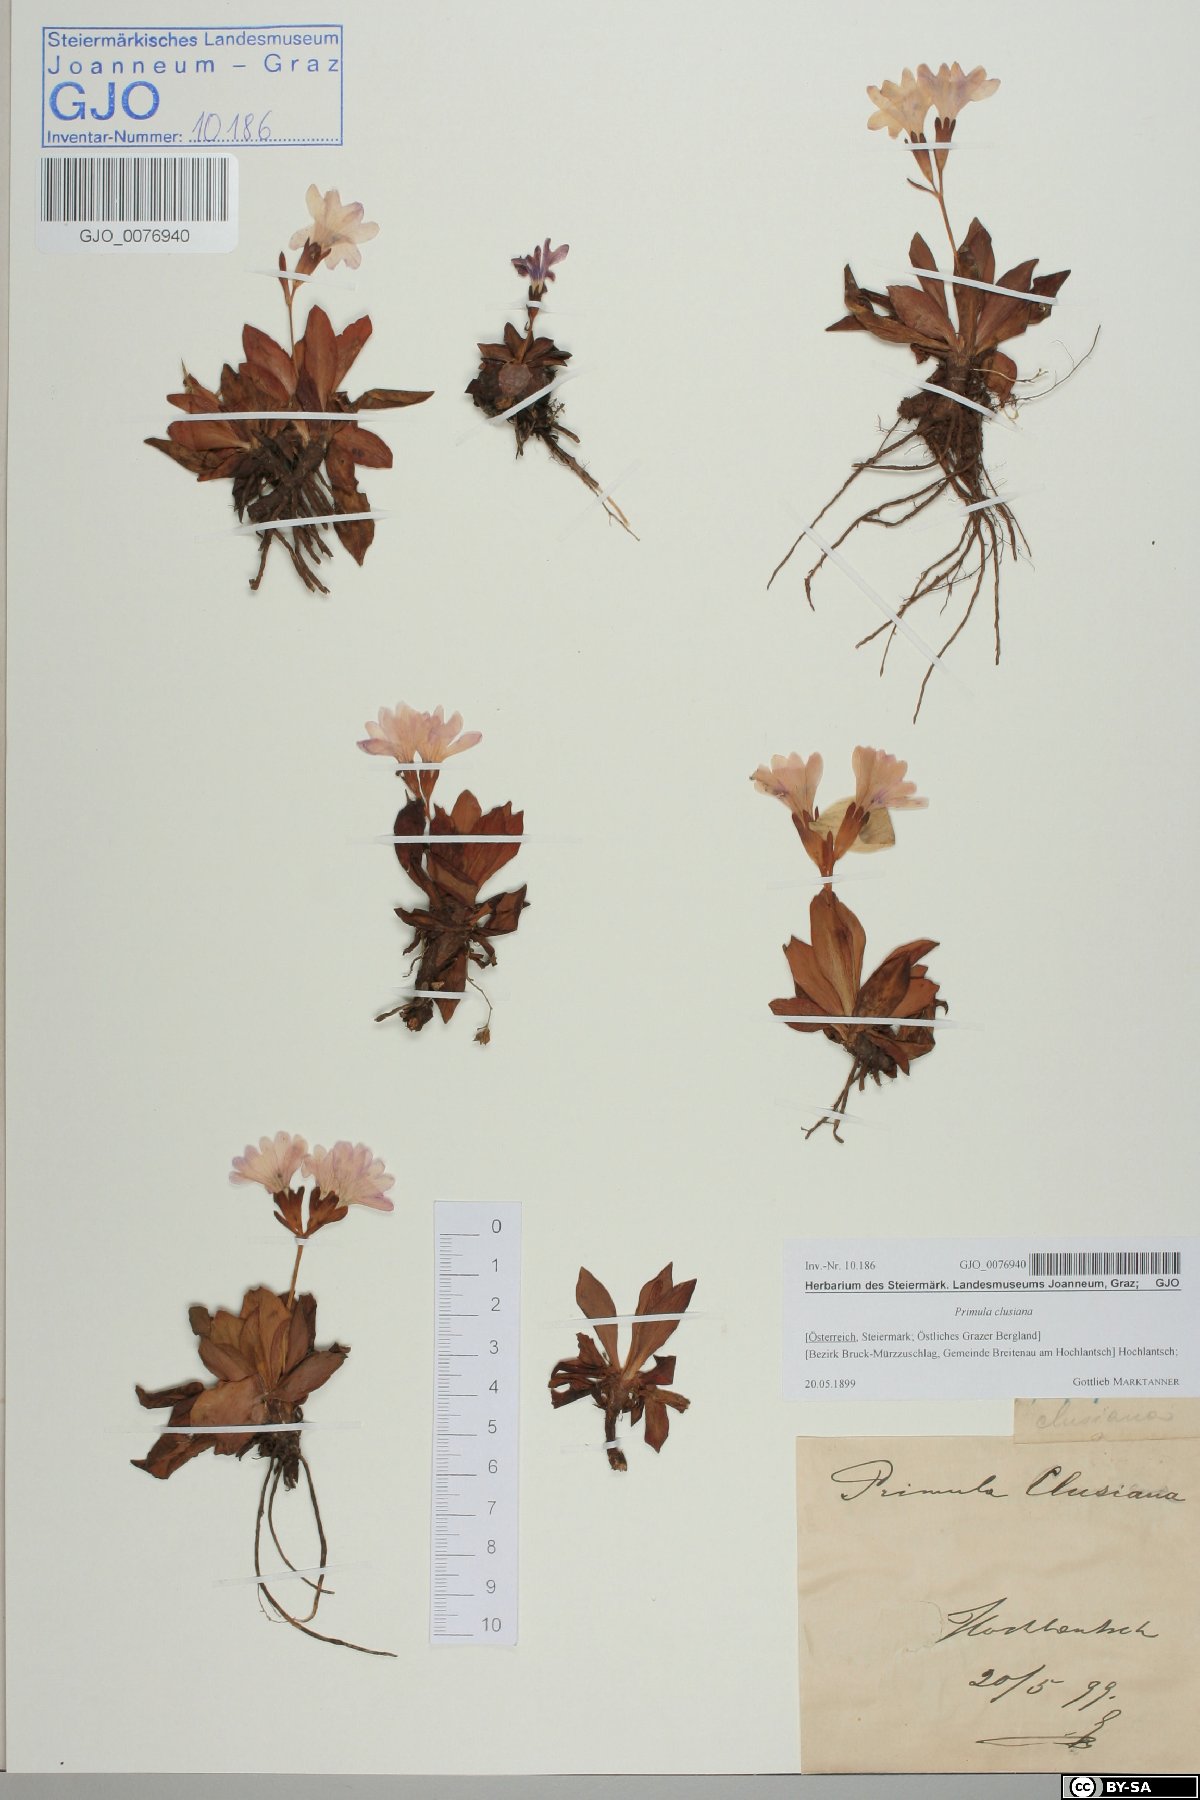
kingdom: Plantae
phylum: Tracheophyta
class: Magnoliopsida
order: Ericales
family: Primulaceae
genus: Primula
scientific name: Primula clusiana
